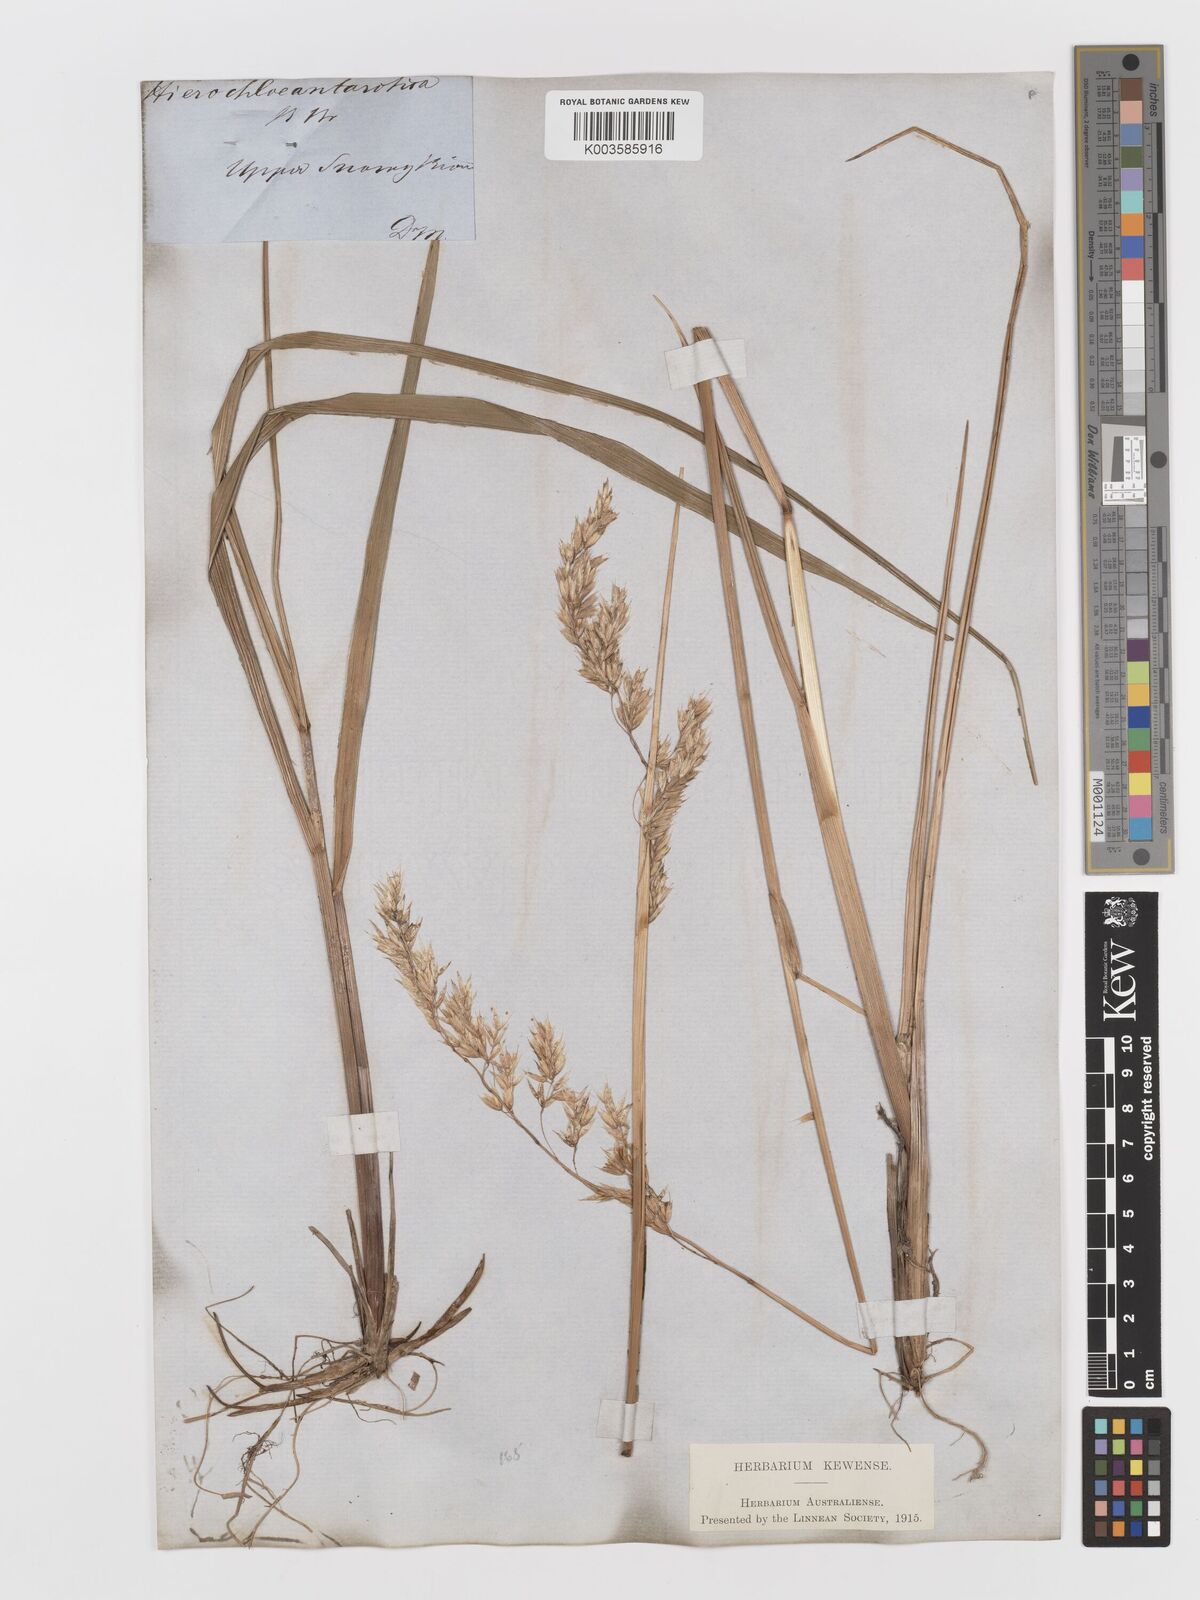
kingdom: Plantae
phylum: Tracheophyta
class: Liliopsida
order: Poales
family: Poaceae
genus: Anthoxanthum
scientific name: Anthoxanthum redolens
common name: Sweet holy grass
